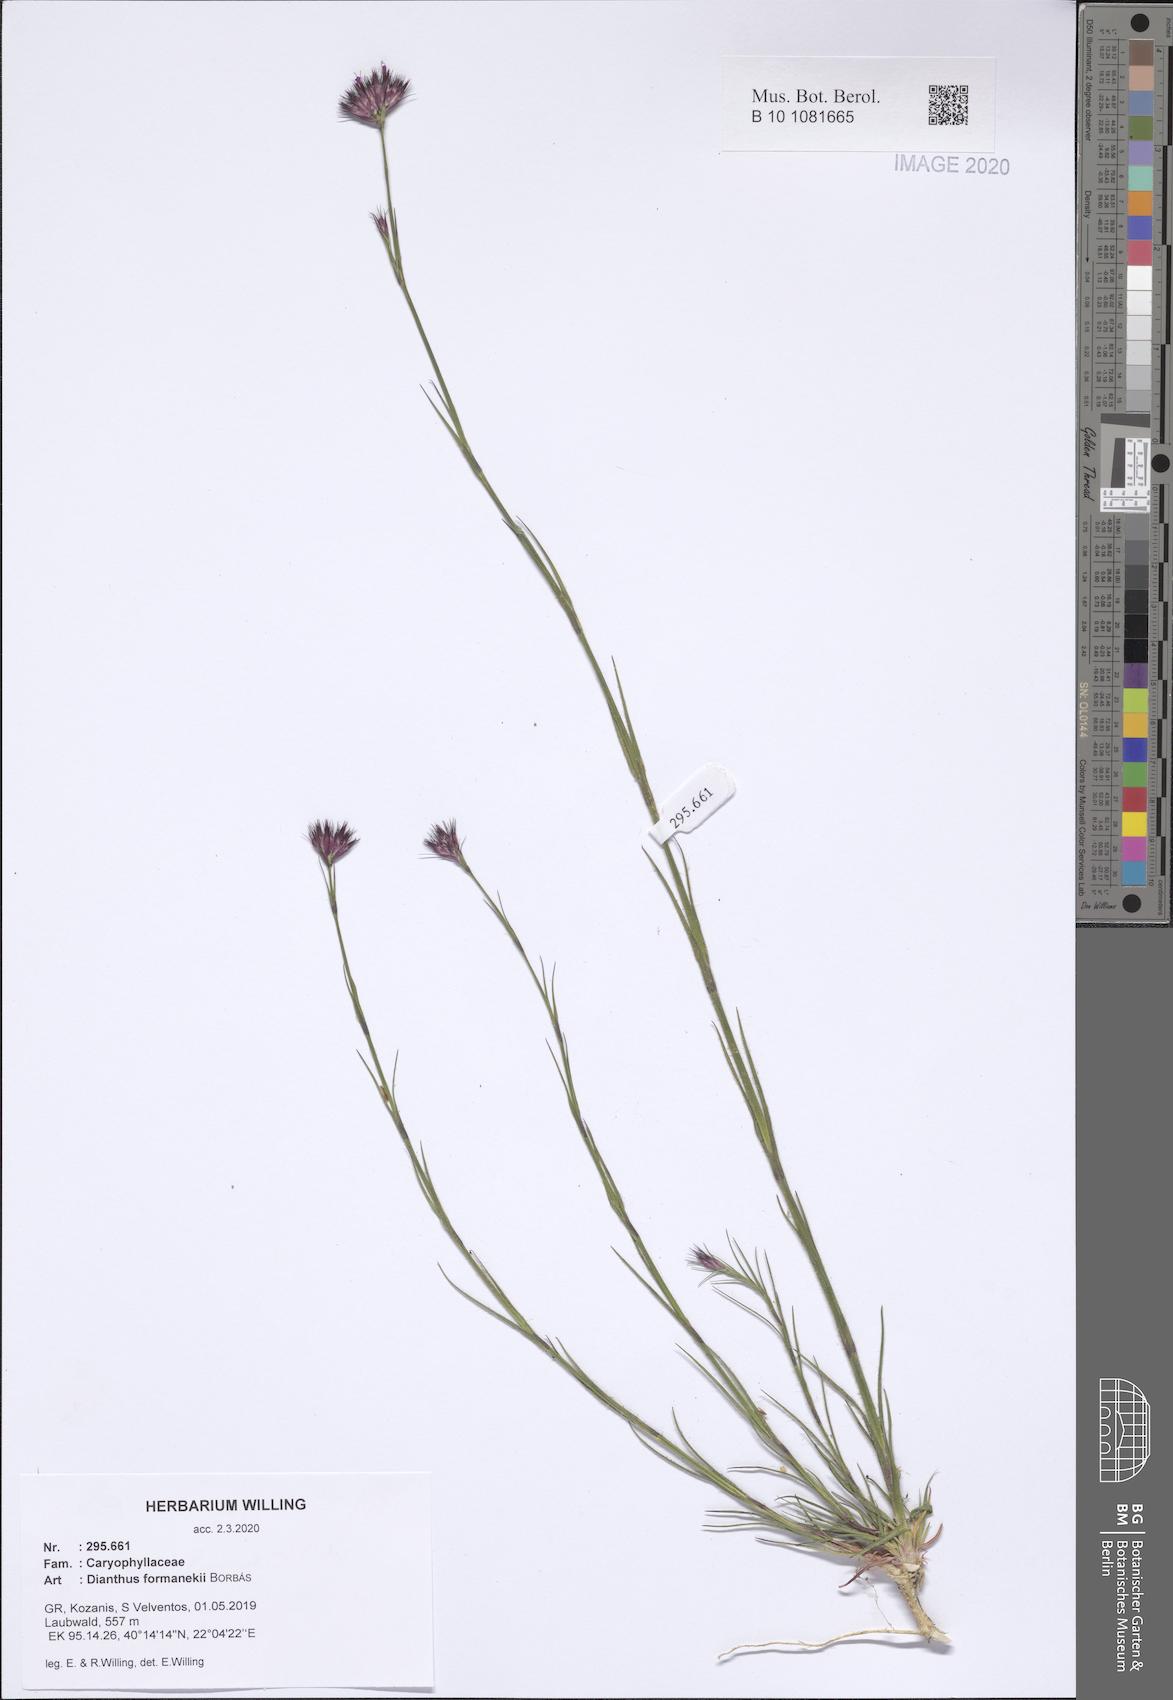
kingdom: Plantae
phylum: Tracheophyta
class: Magnoliopsida
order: Caryophyllales
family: Caryophyllaceae
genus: Dianthus
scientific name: Dianthus formanekii
